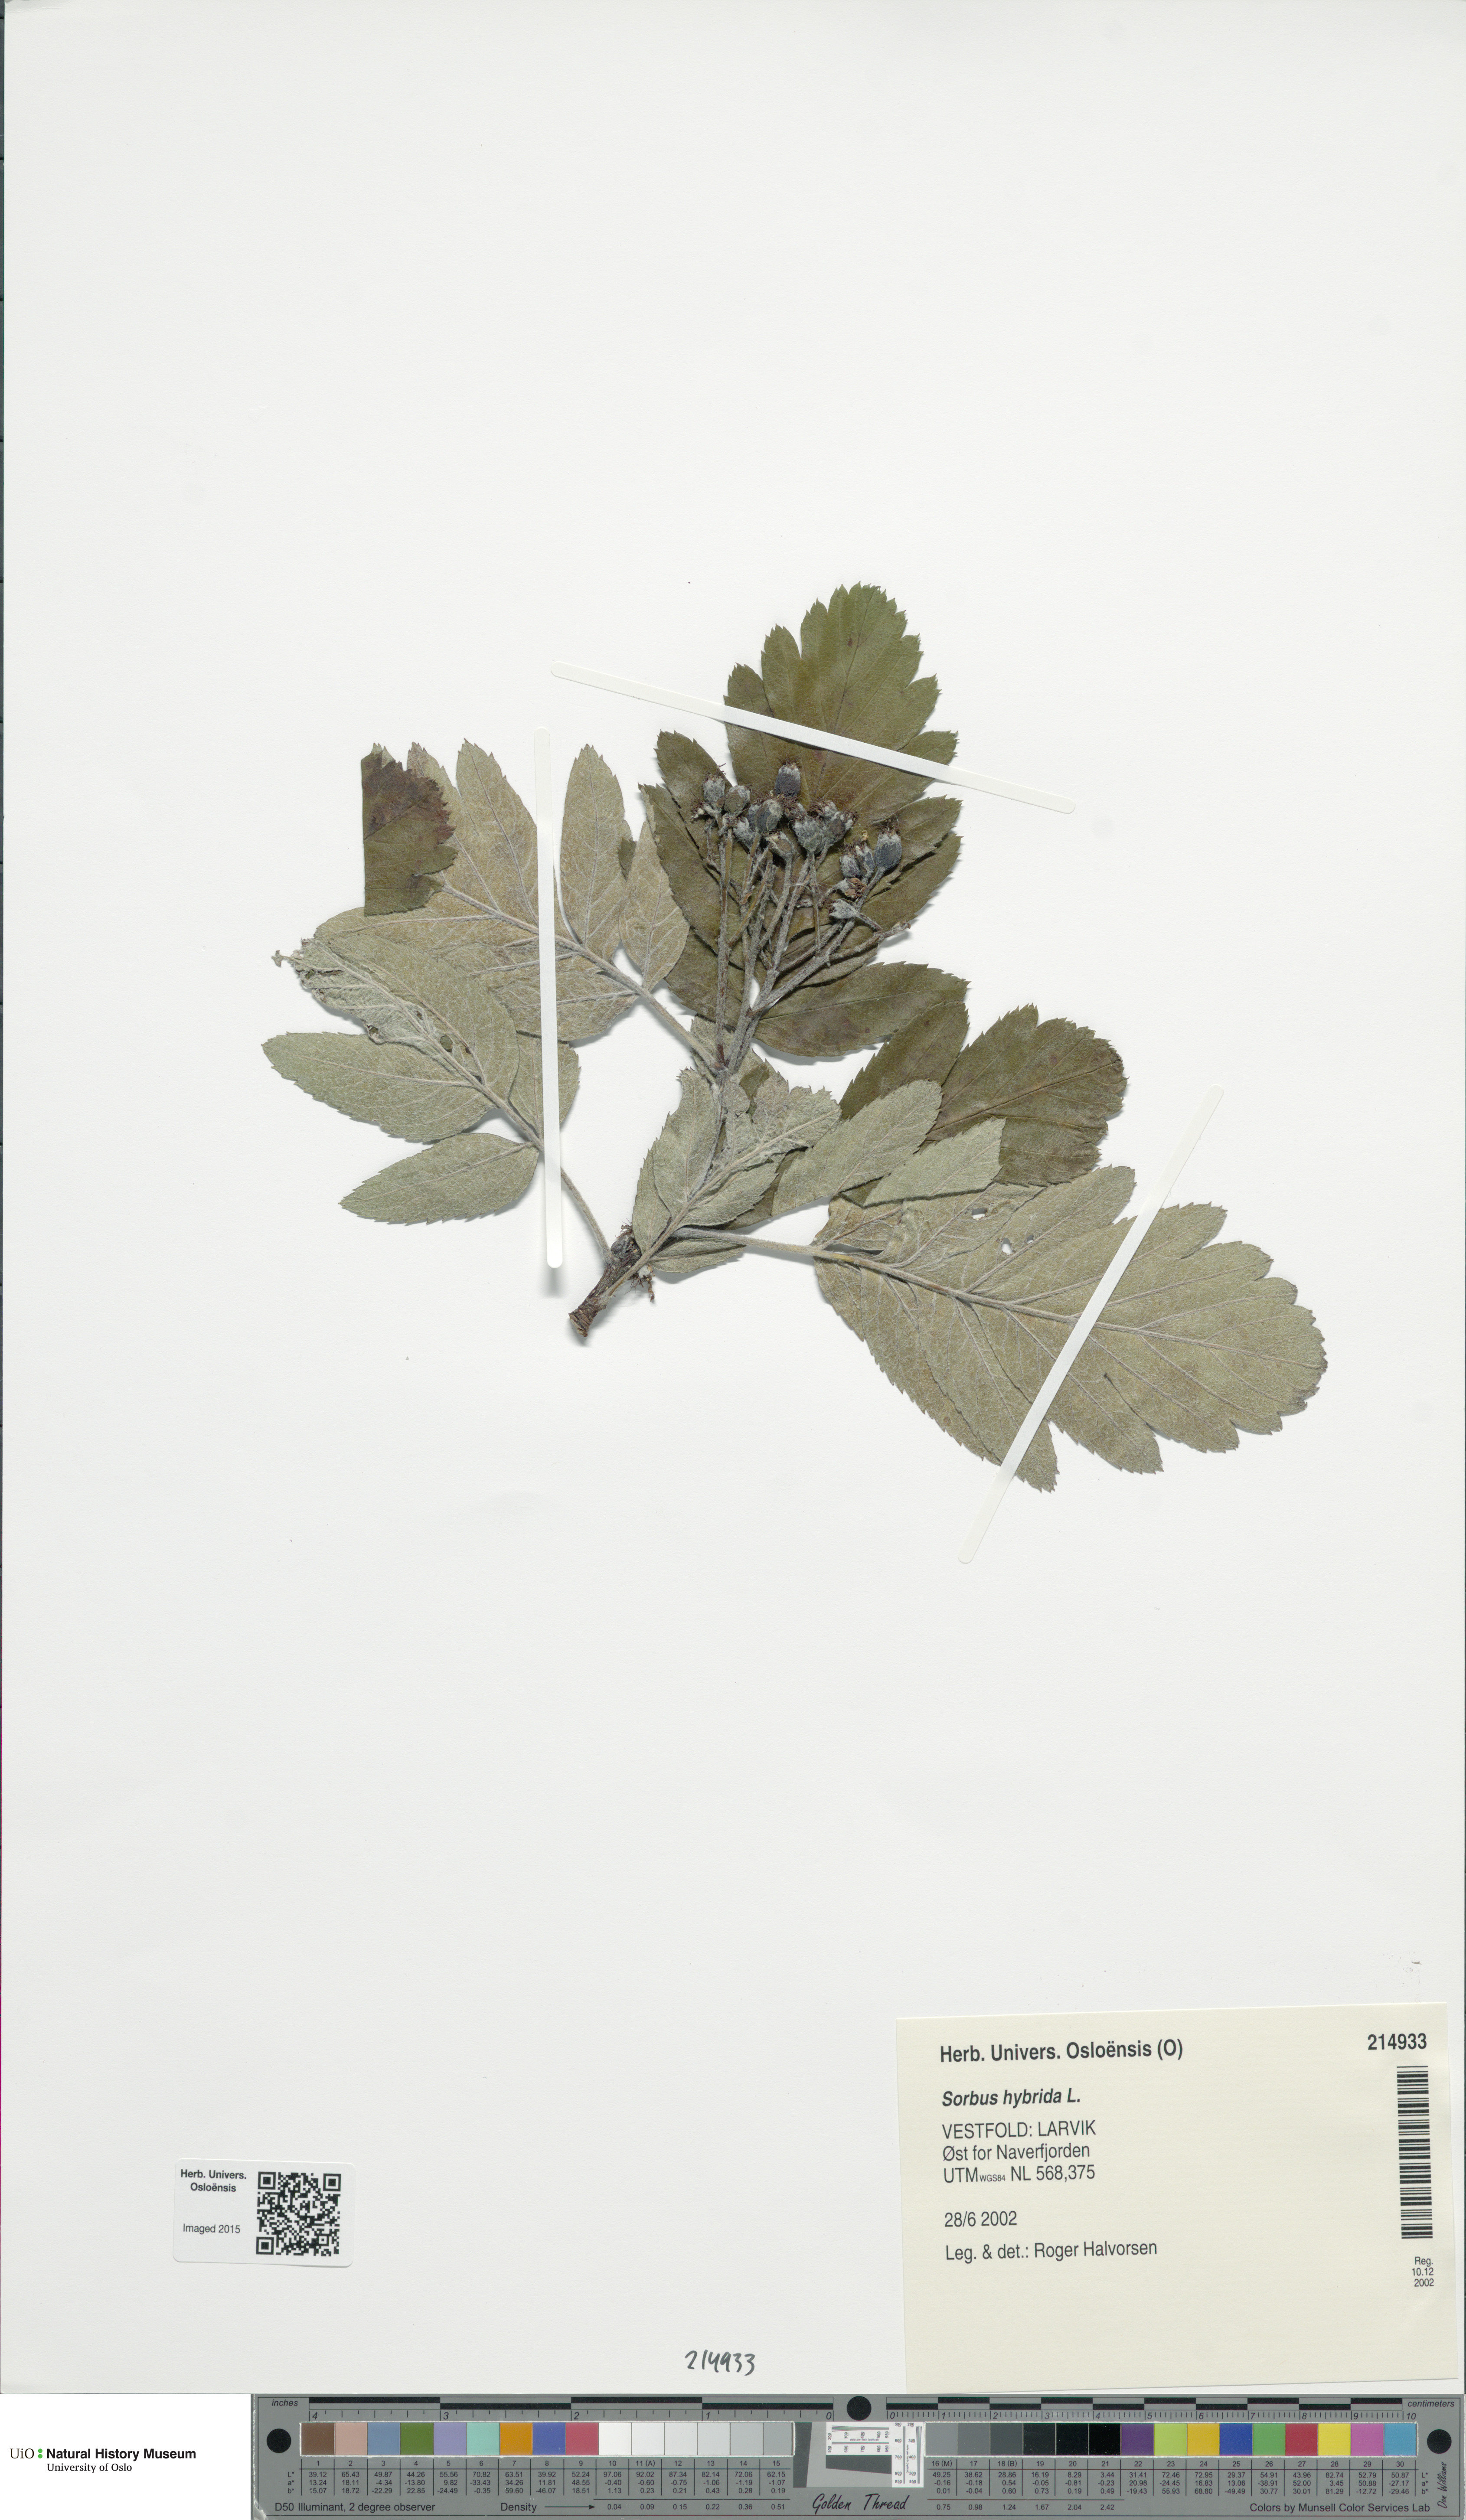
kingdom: Plantae
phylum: Tracheophyta
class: Magnoliopsida
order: Rosales
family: Rosaceae
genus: Hedlundia
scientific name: Hedlundia hybrida
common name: Swedish service-tree
